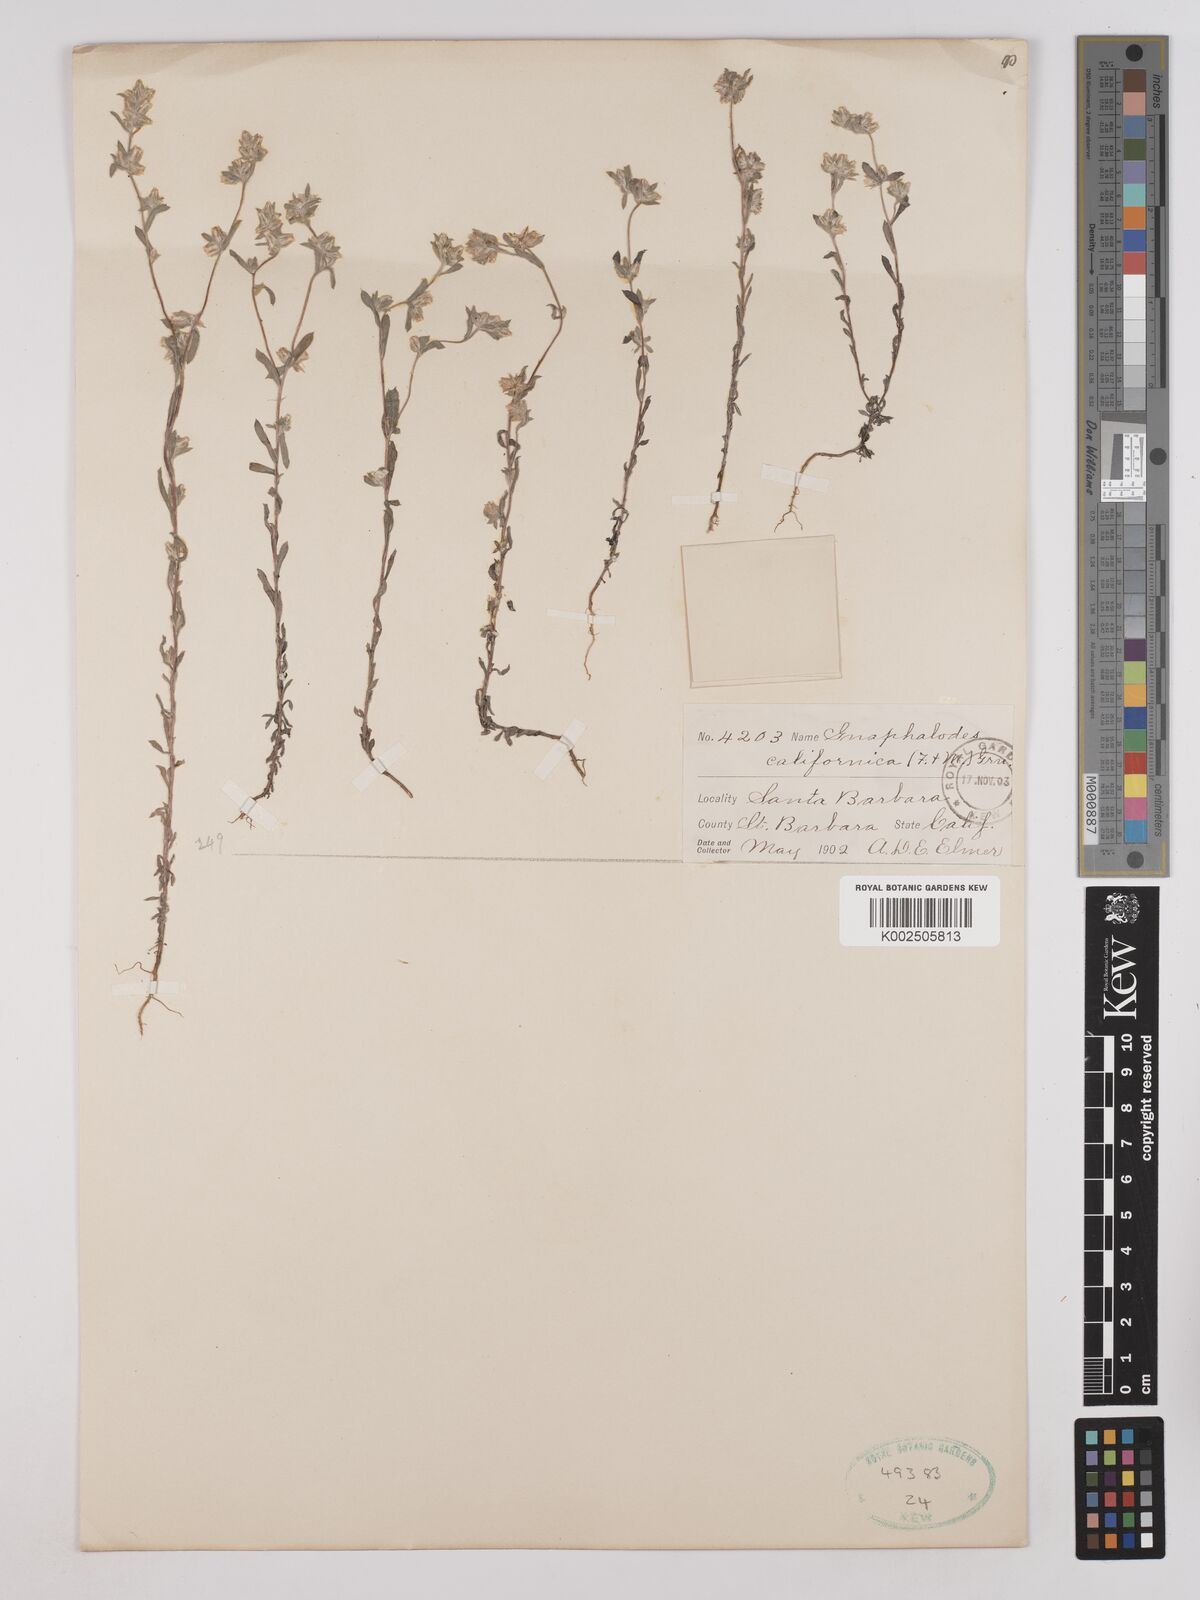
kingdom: Plantae
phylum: Tracheophyta
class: Magnoliopsida
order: Asterales
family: Asteraceae
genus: Bombycilaena
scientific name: Bombycilaena californica
